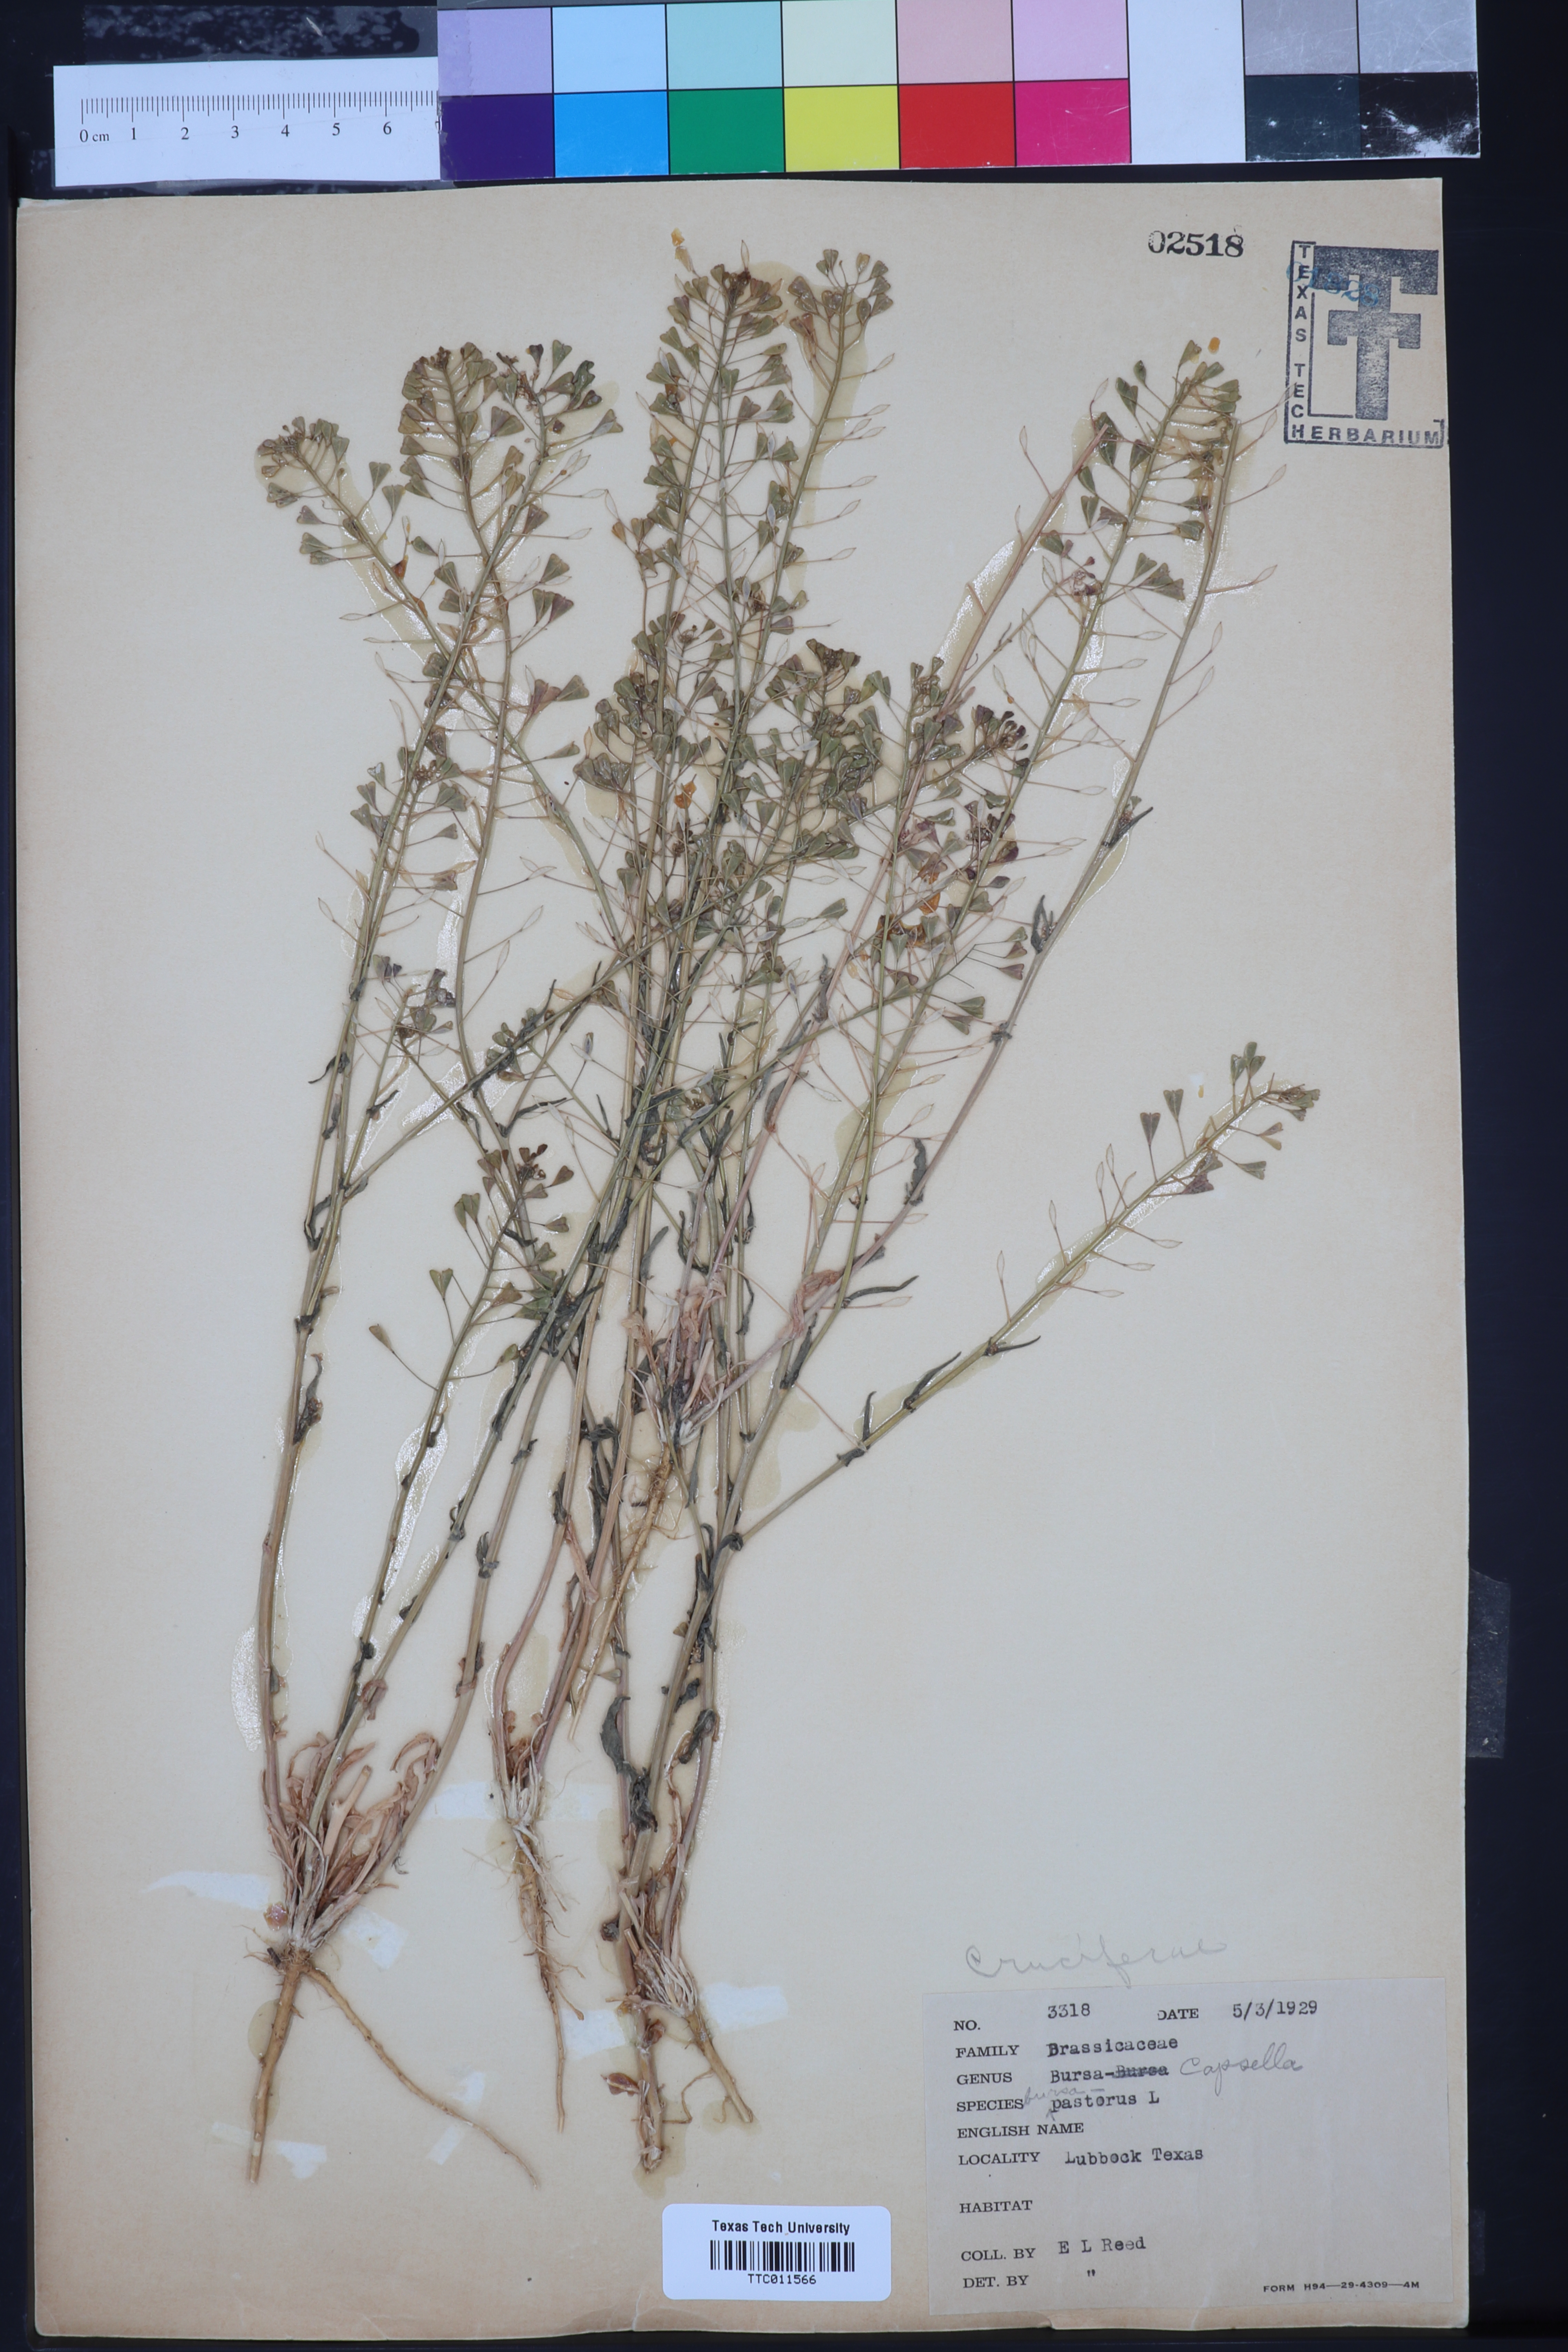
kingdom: Plantae
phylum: Tracheophyta
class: Magnoliopsida
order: Brassicales
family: Brassicaceae
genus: Capsella
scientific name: Capsella bursa-pastoris
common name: Shepherd's purse
